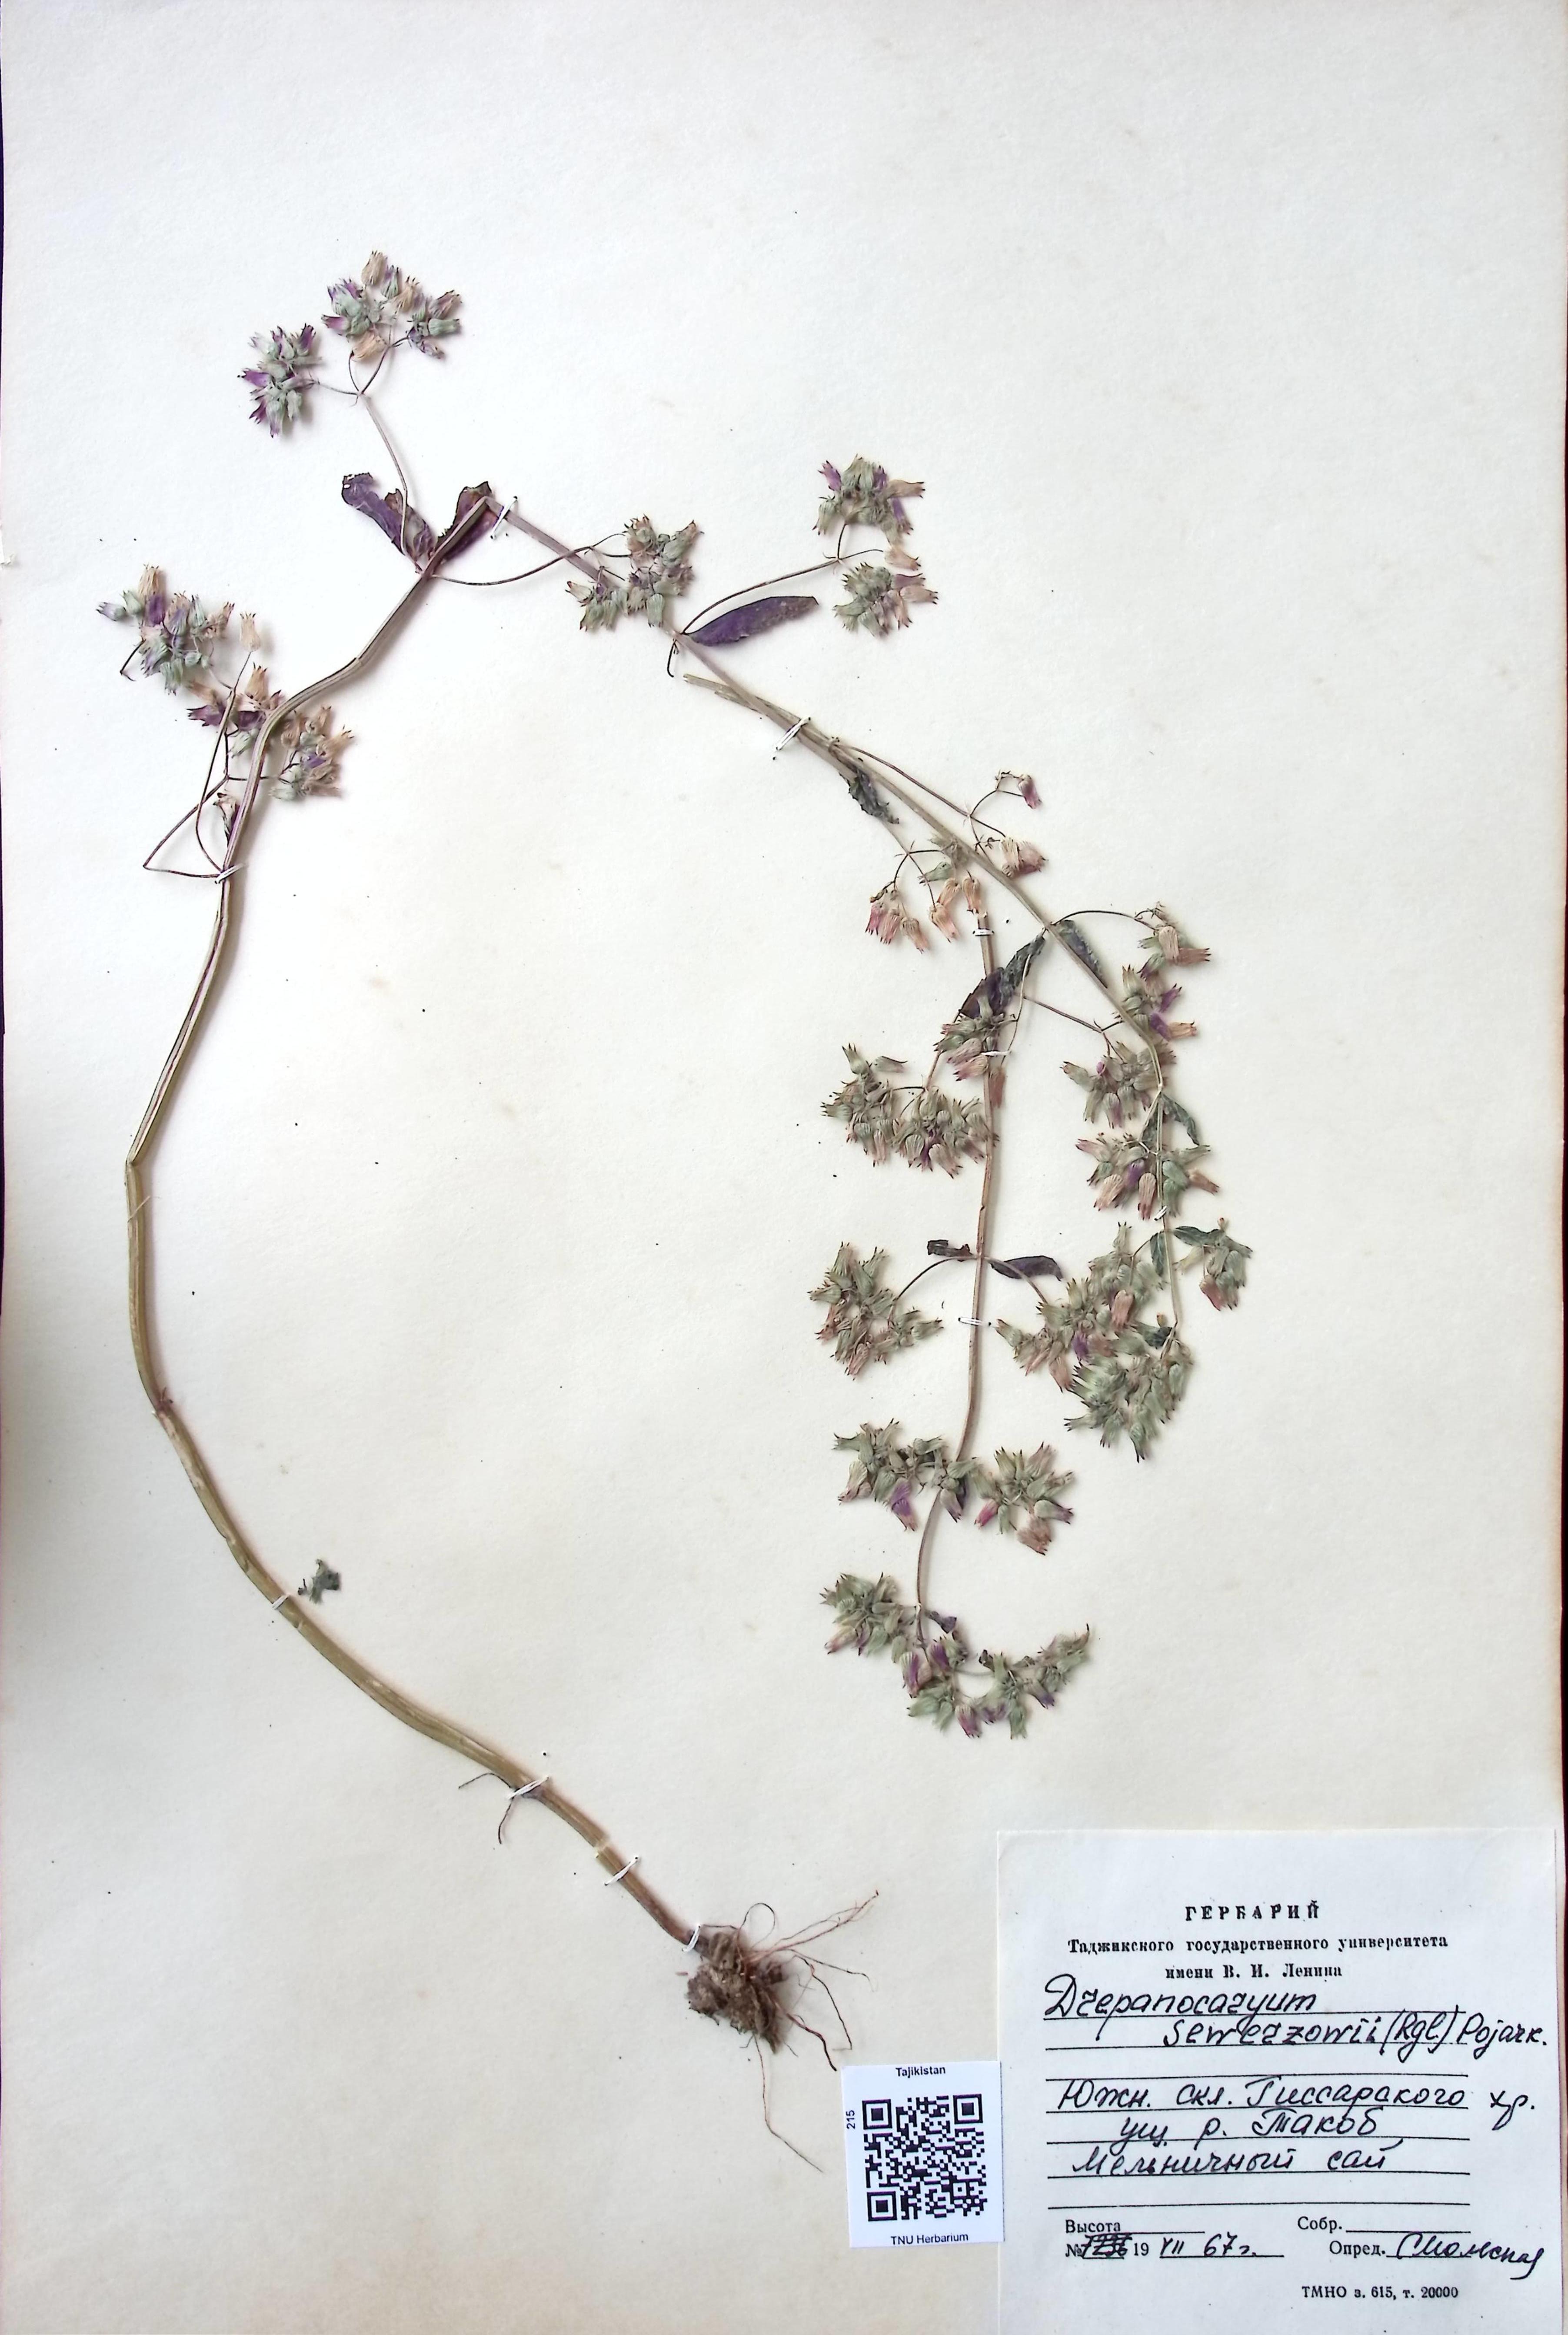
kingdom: Plantae
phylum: Tracheophyta
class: Magnoliopsida
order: Lamiales
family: Lamiaceae
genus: Drepanocaryum
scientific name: Drepanocaryum sewerzowii
